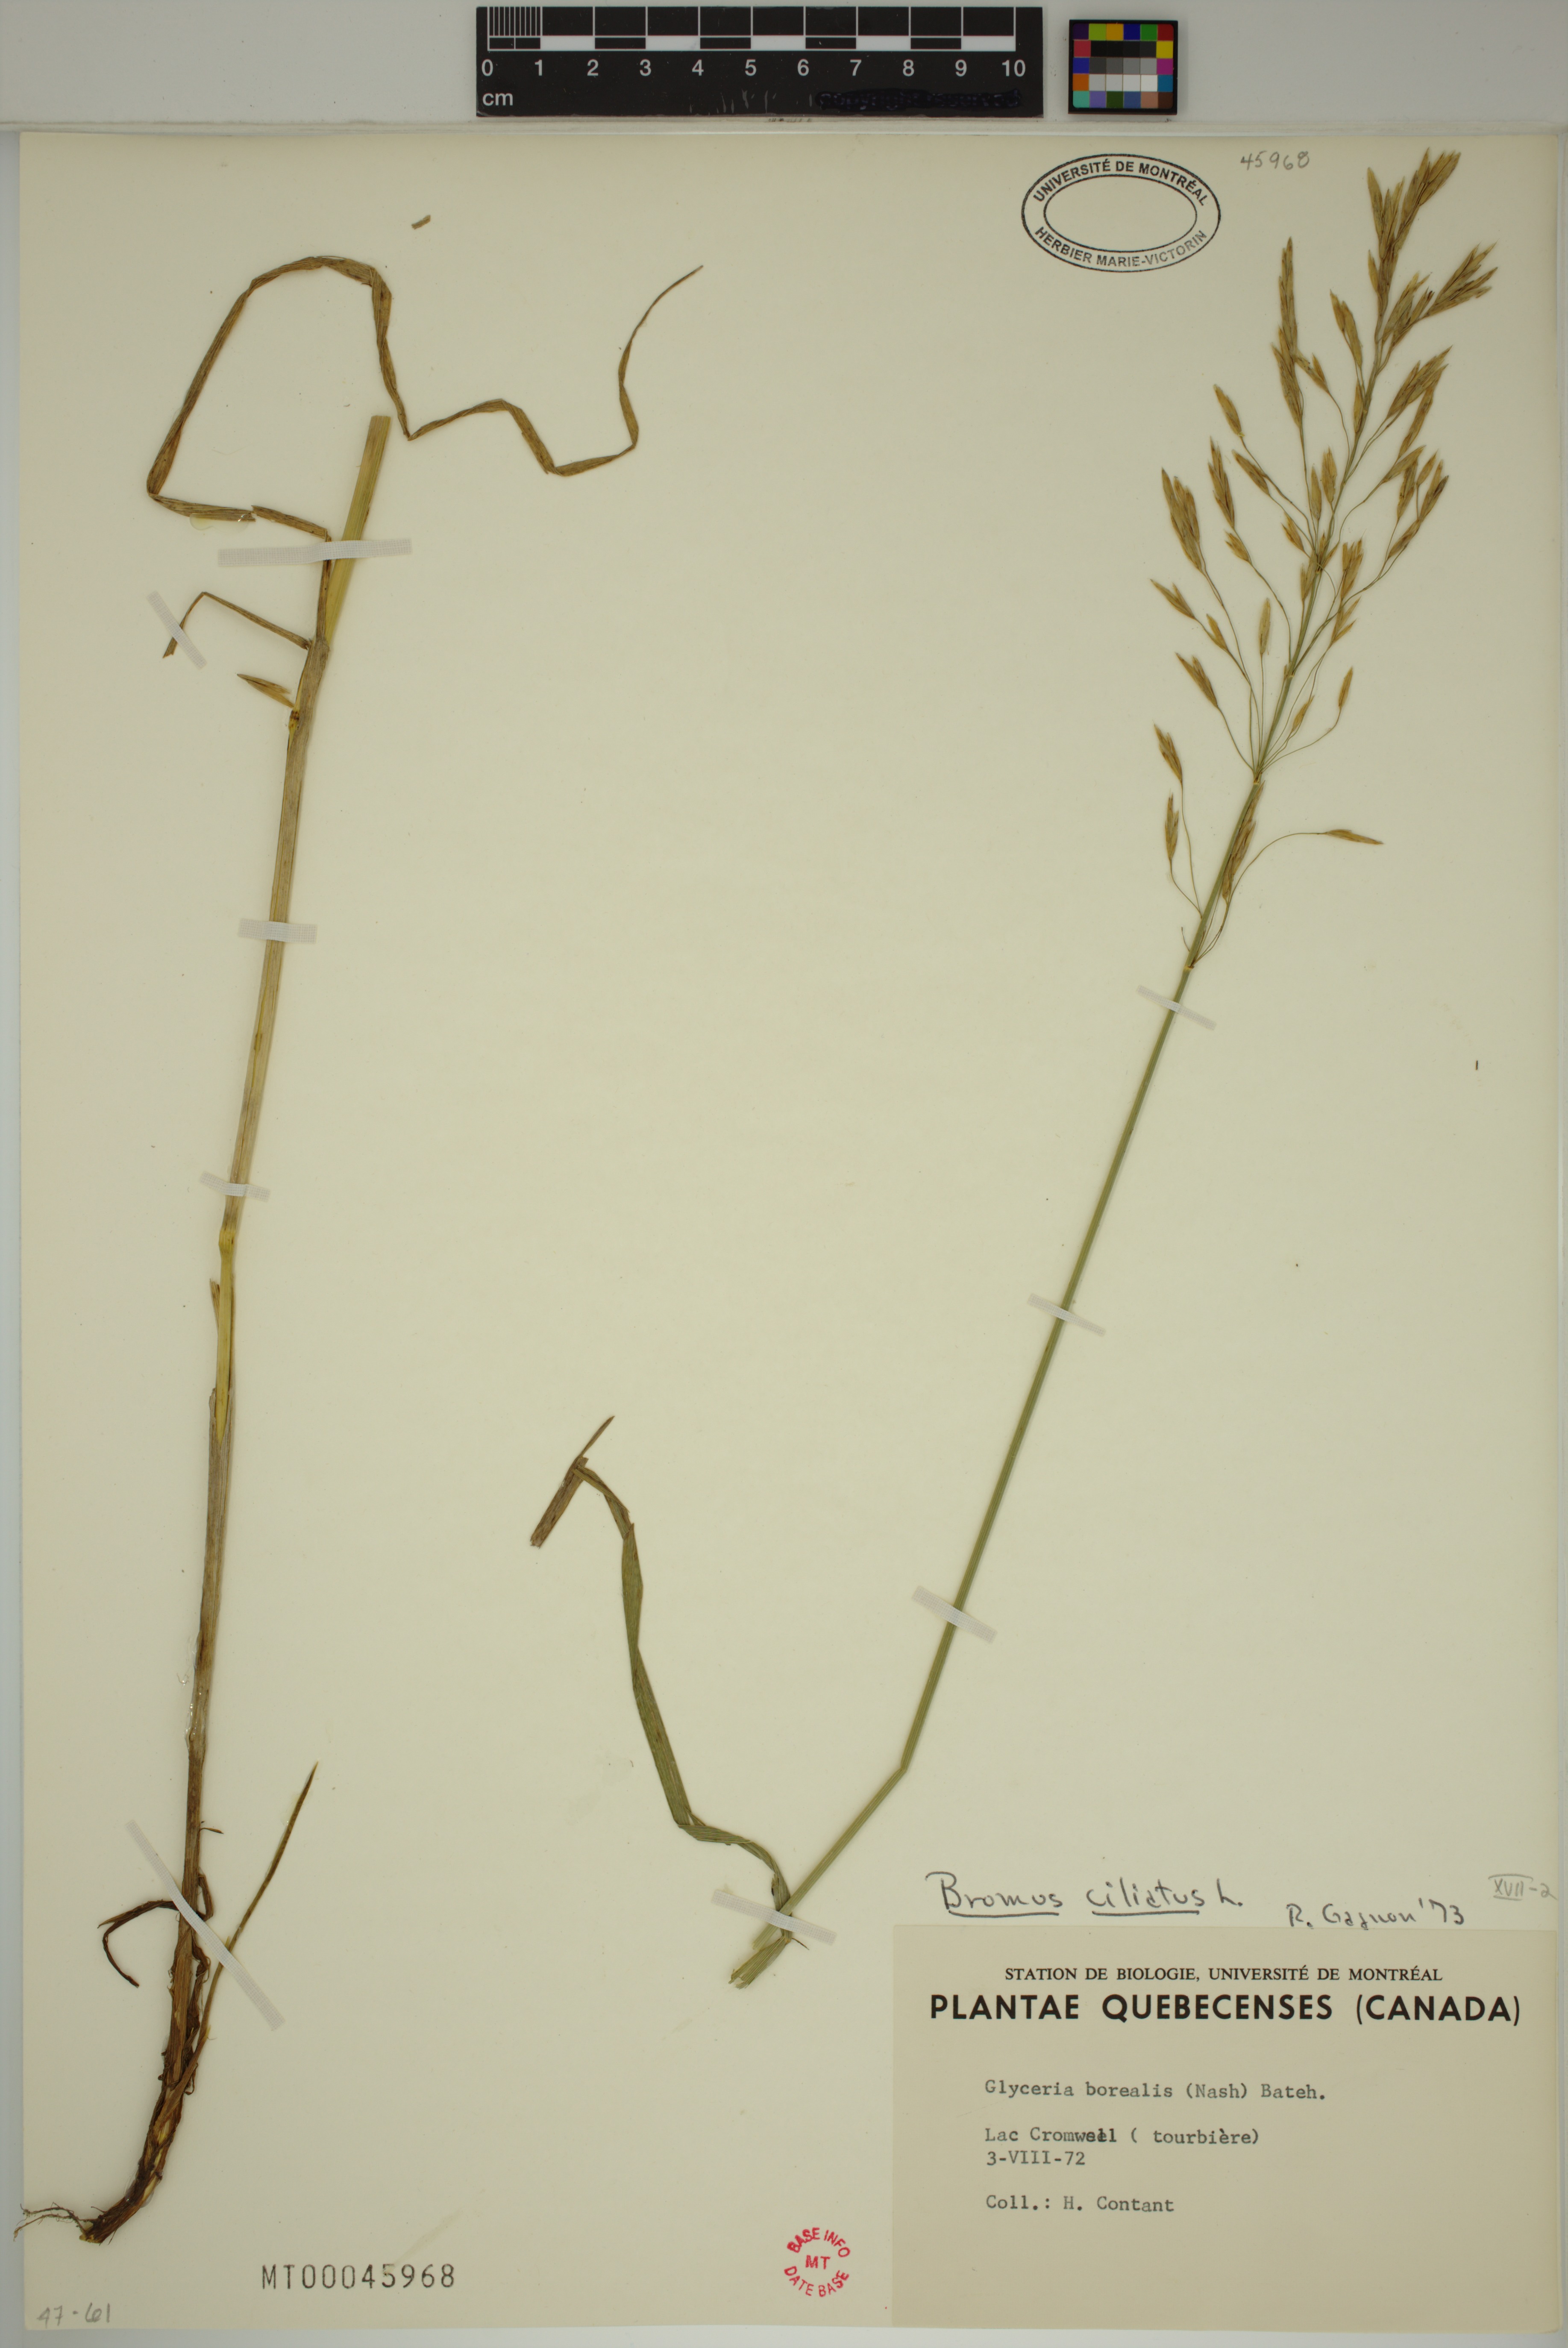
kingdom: Plantae
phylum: Tracheophyta
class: Liliopsida
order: Poales
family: Poaceae
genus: Bromus
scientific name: Bromus ciliatus
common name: Fringe brome
